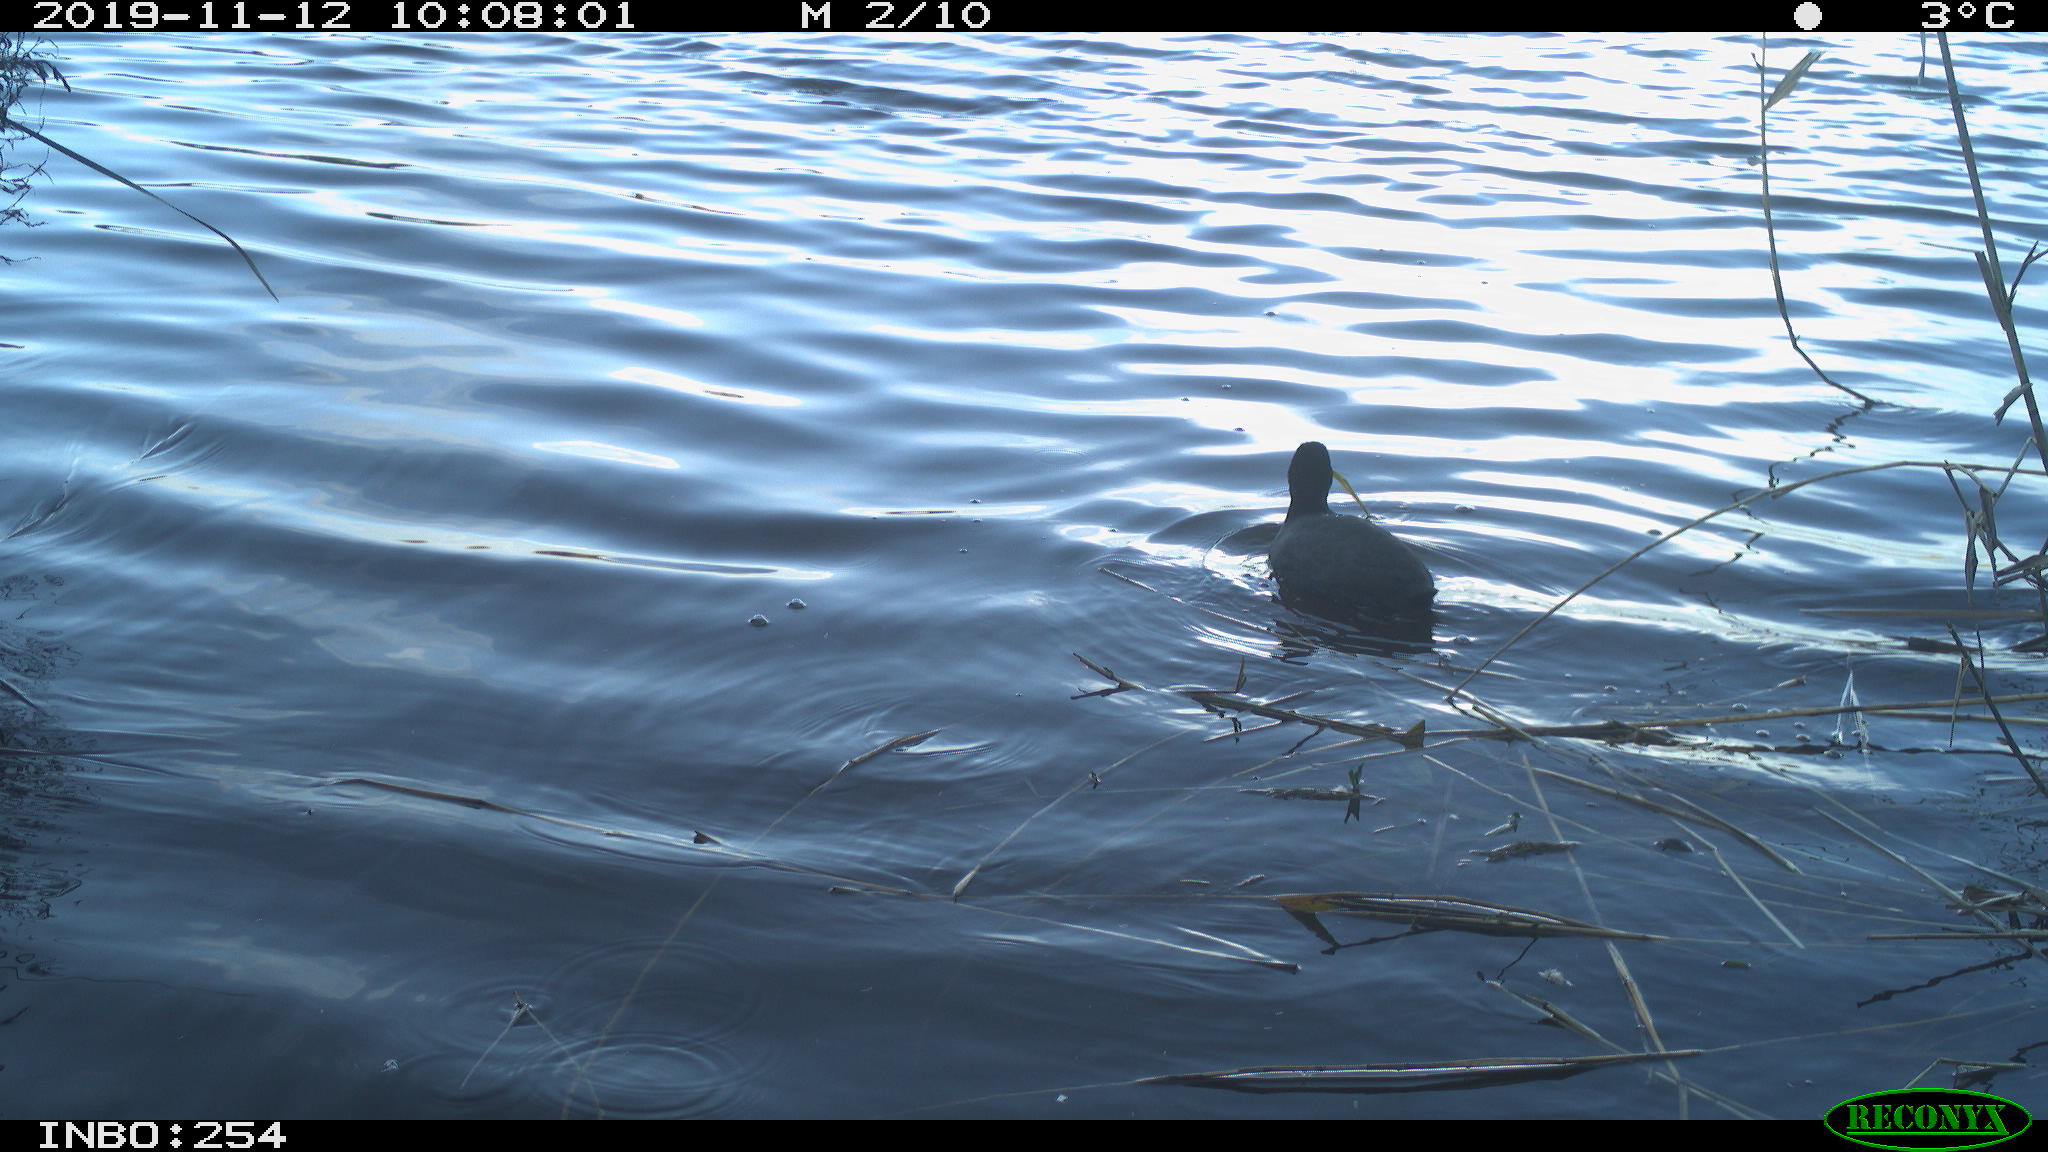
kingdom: Animalia
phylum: Chordata
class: Aves
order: Gruiformes
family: Rallidae
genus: Fulica
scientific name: Fulica atra
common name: Eurasian coot
